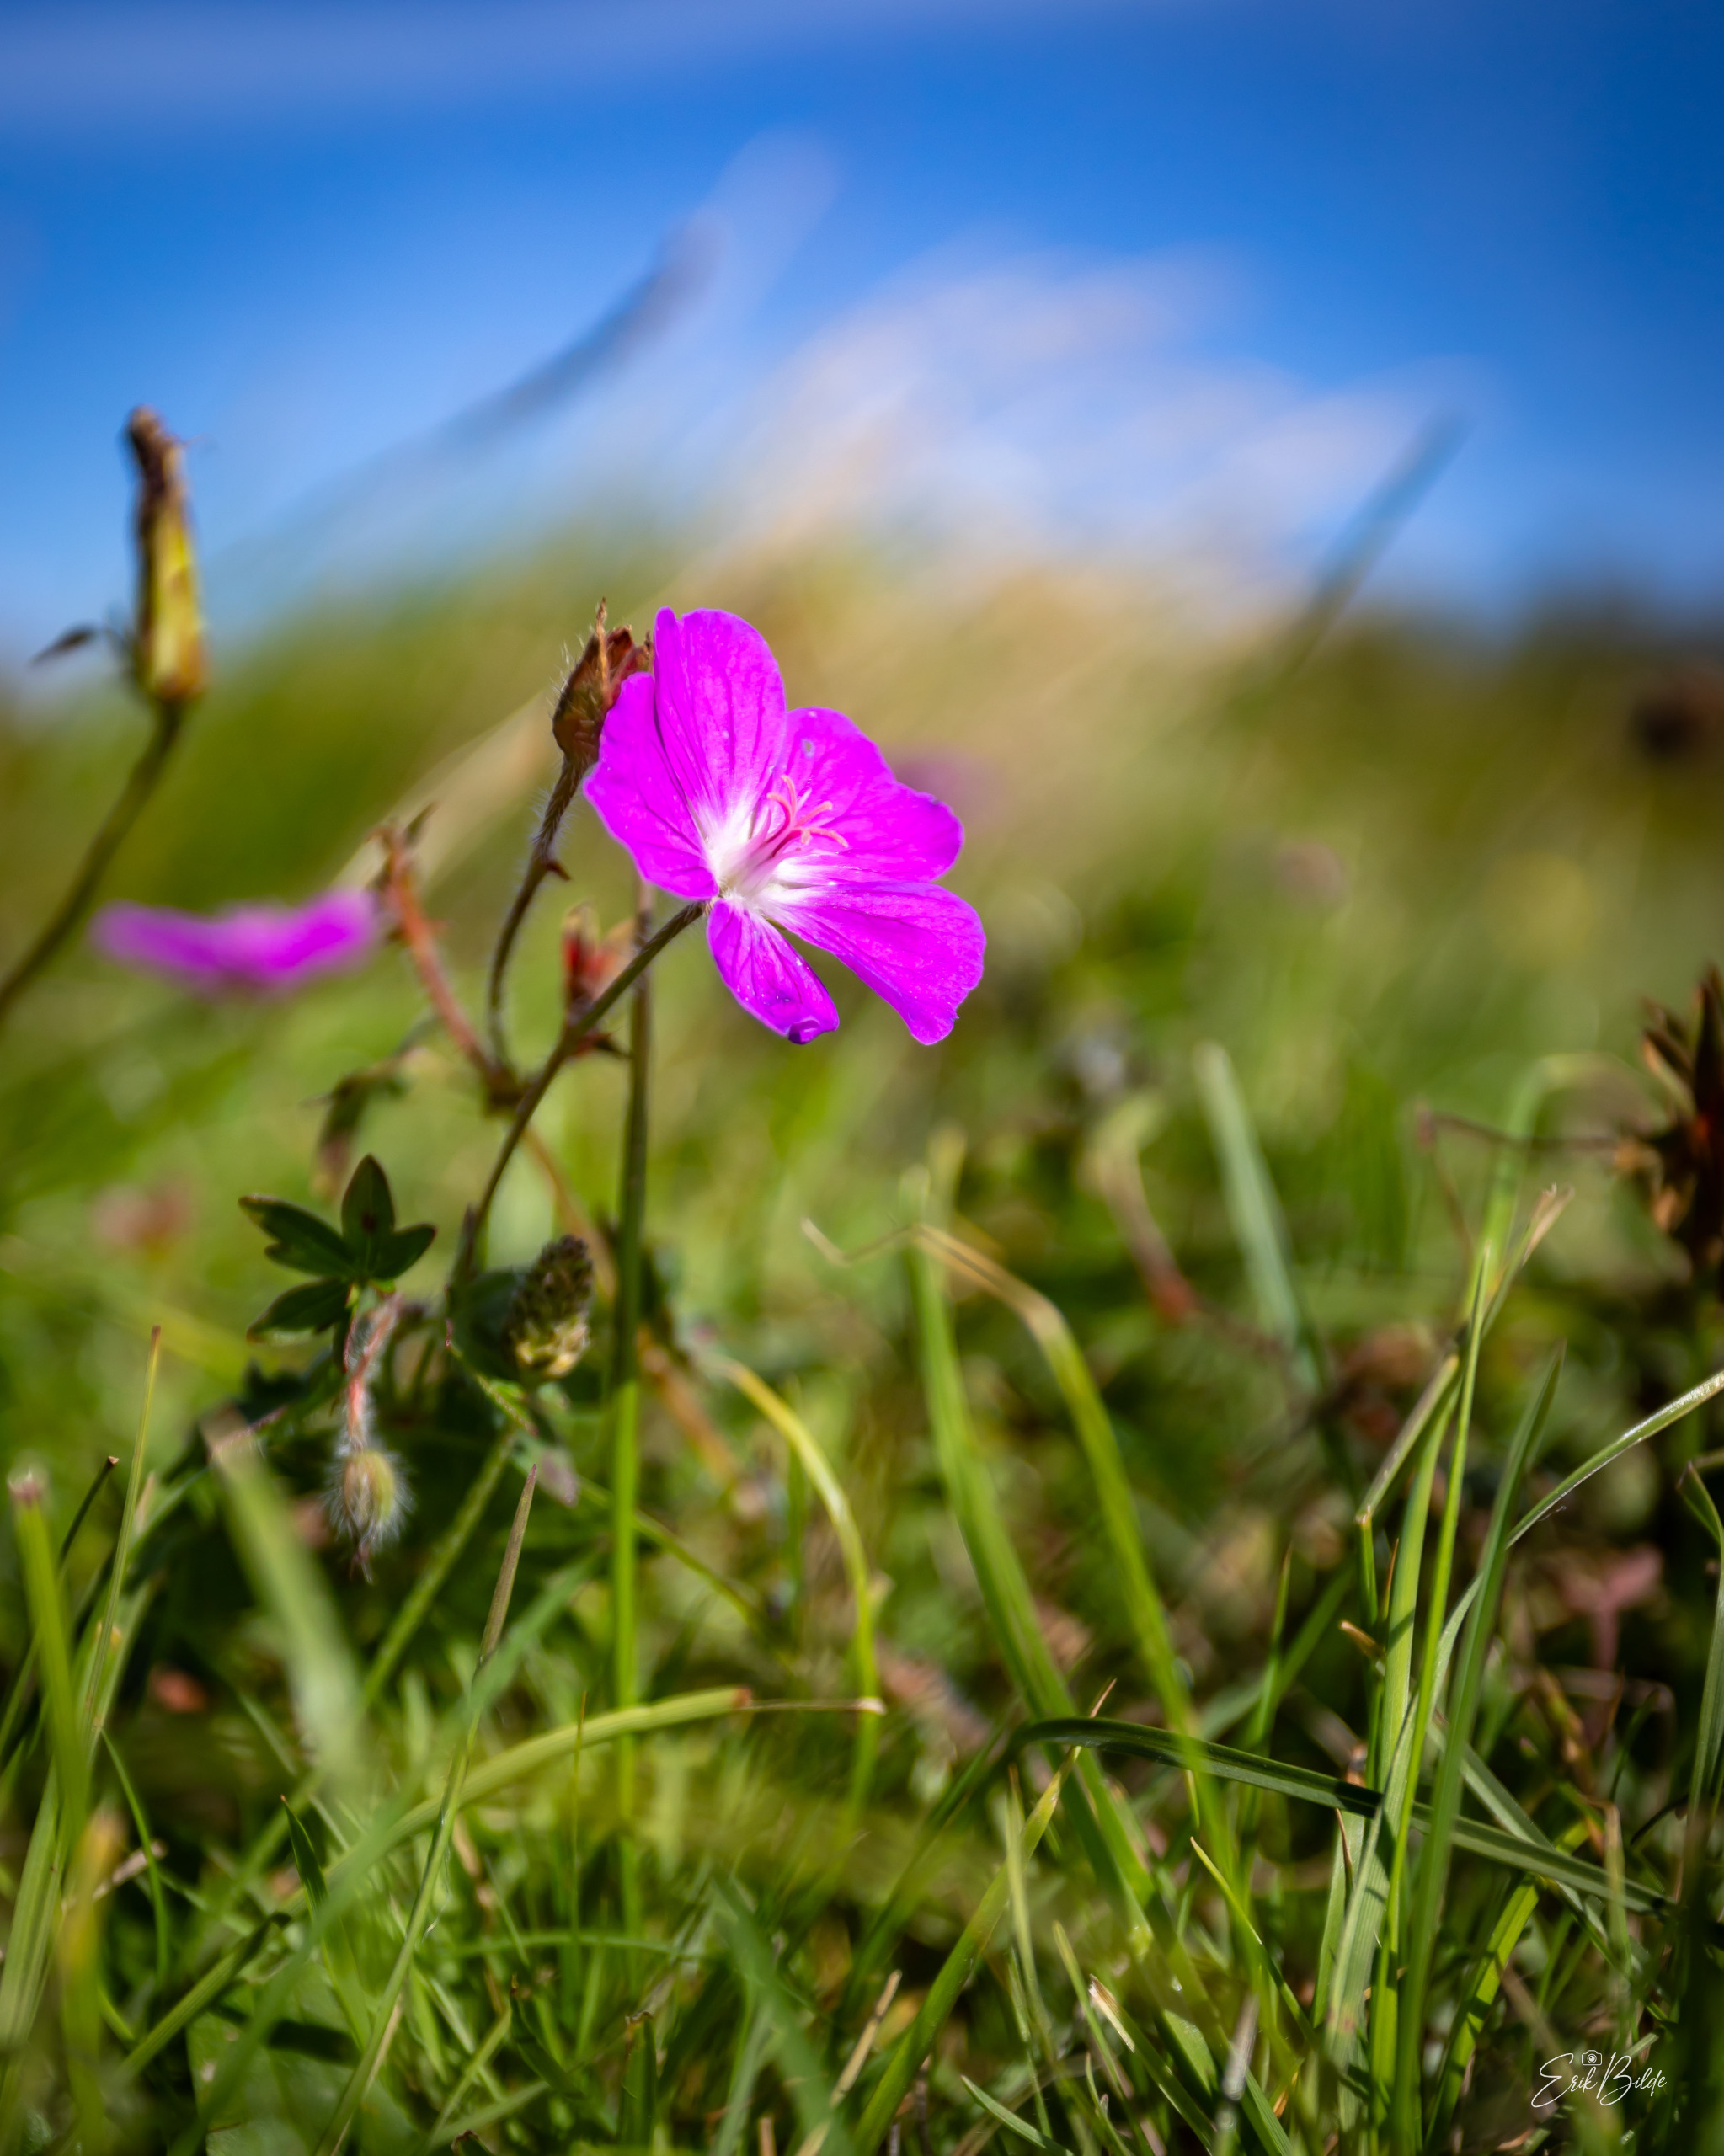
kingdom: Plantae
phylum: Tracheophyta
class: Magnoliopsida
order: Geraniales
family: Geraniaceae
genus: Geranium
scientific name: Geranium sanguineum
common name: Blodrød storkenæb
